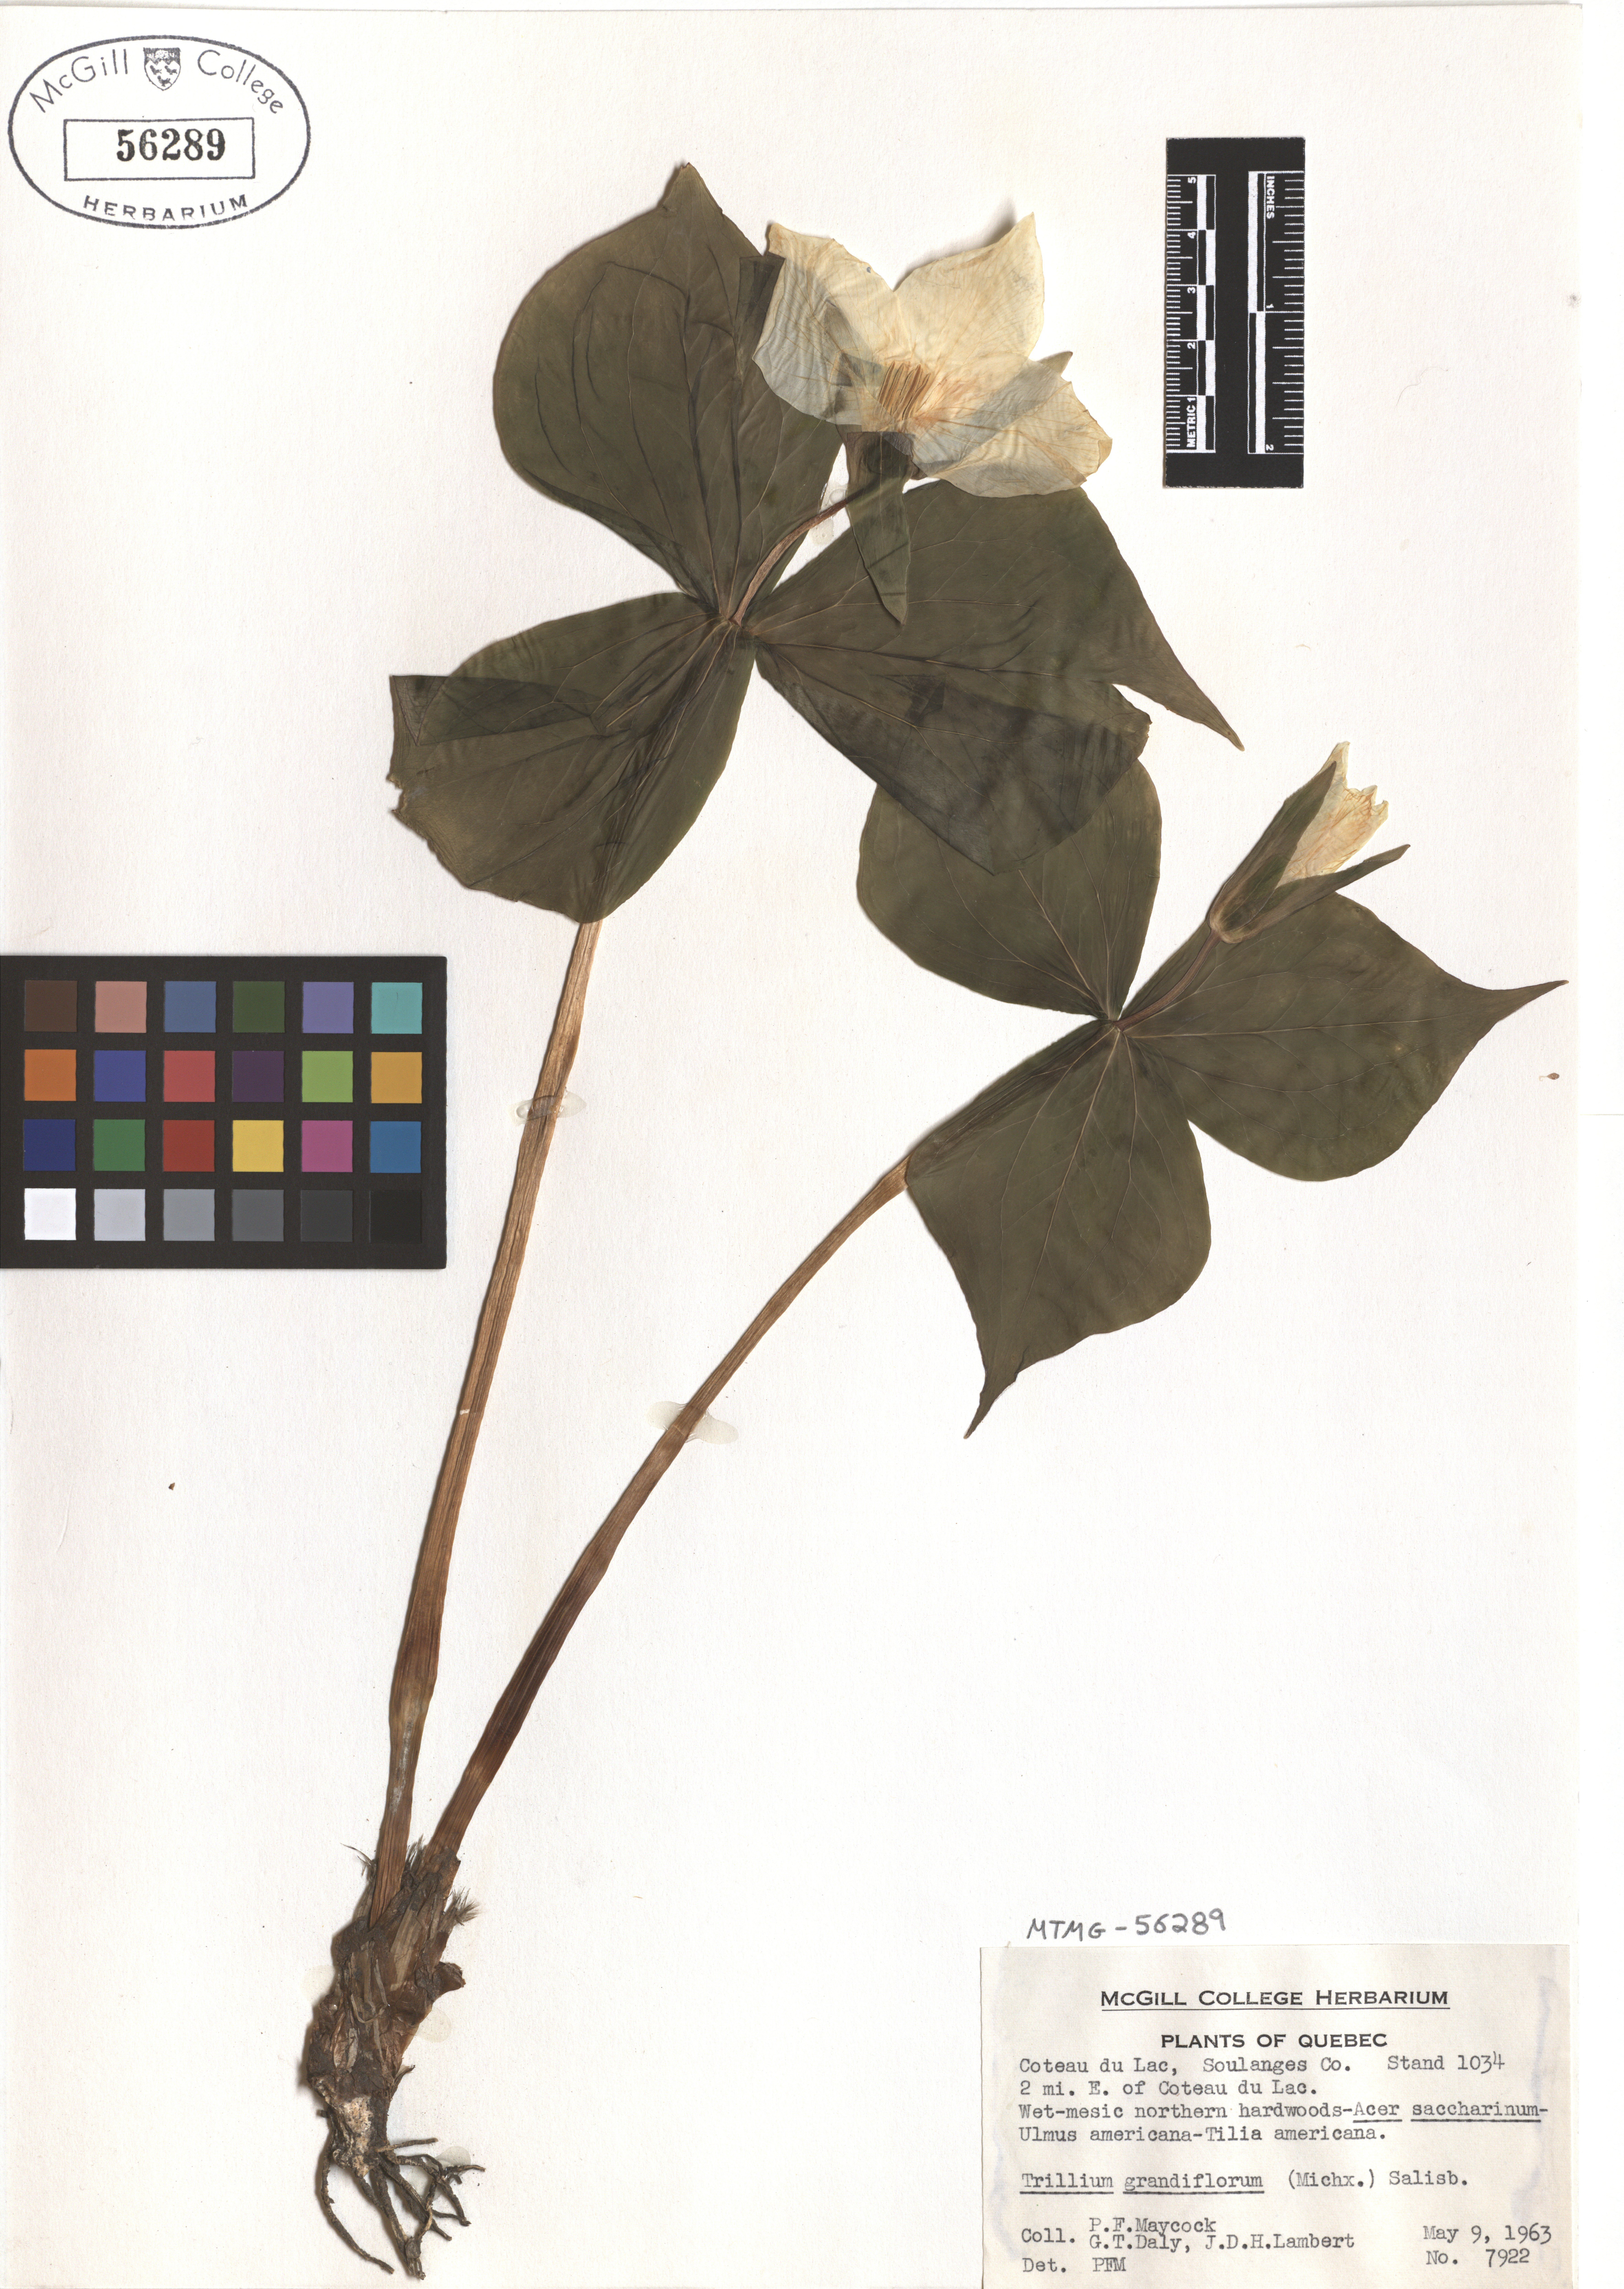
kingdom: Plantae
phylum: Tracheophyta
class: Liliopsida
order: Liliales
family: Melanthiaceae
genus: Trillium
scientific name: Trillium grandiflorum
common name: Great white trillium
